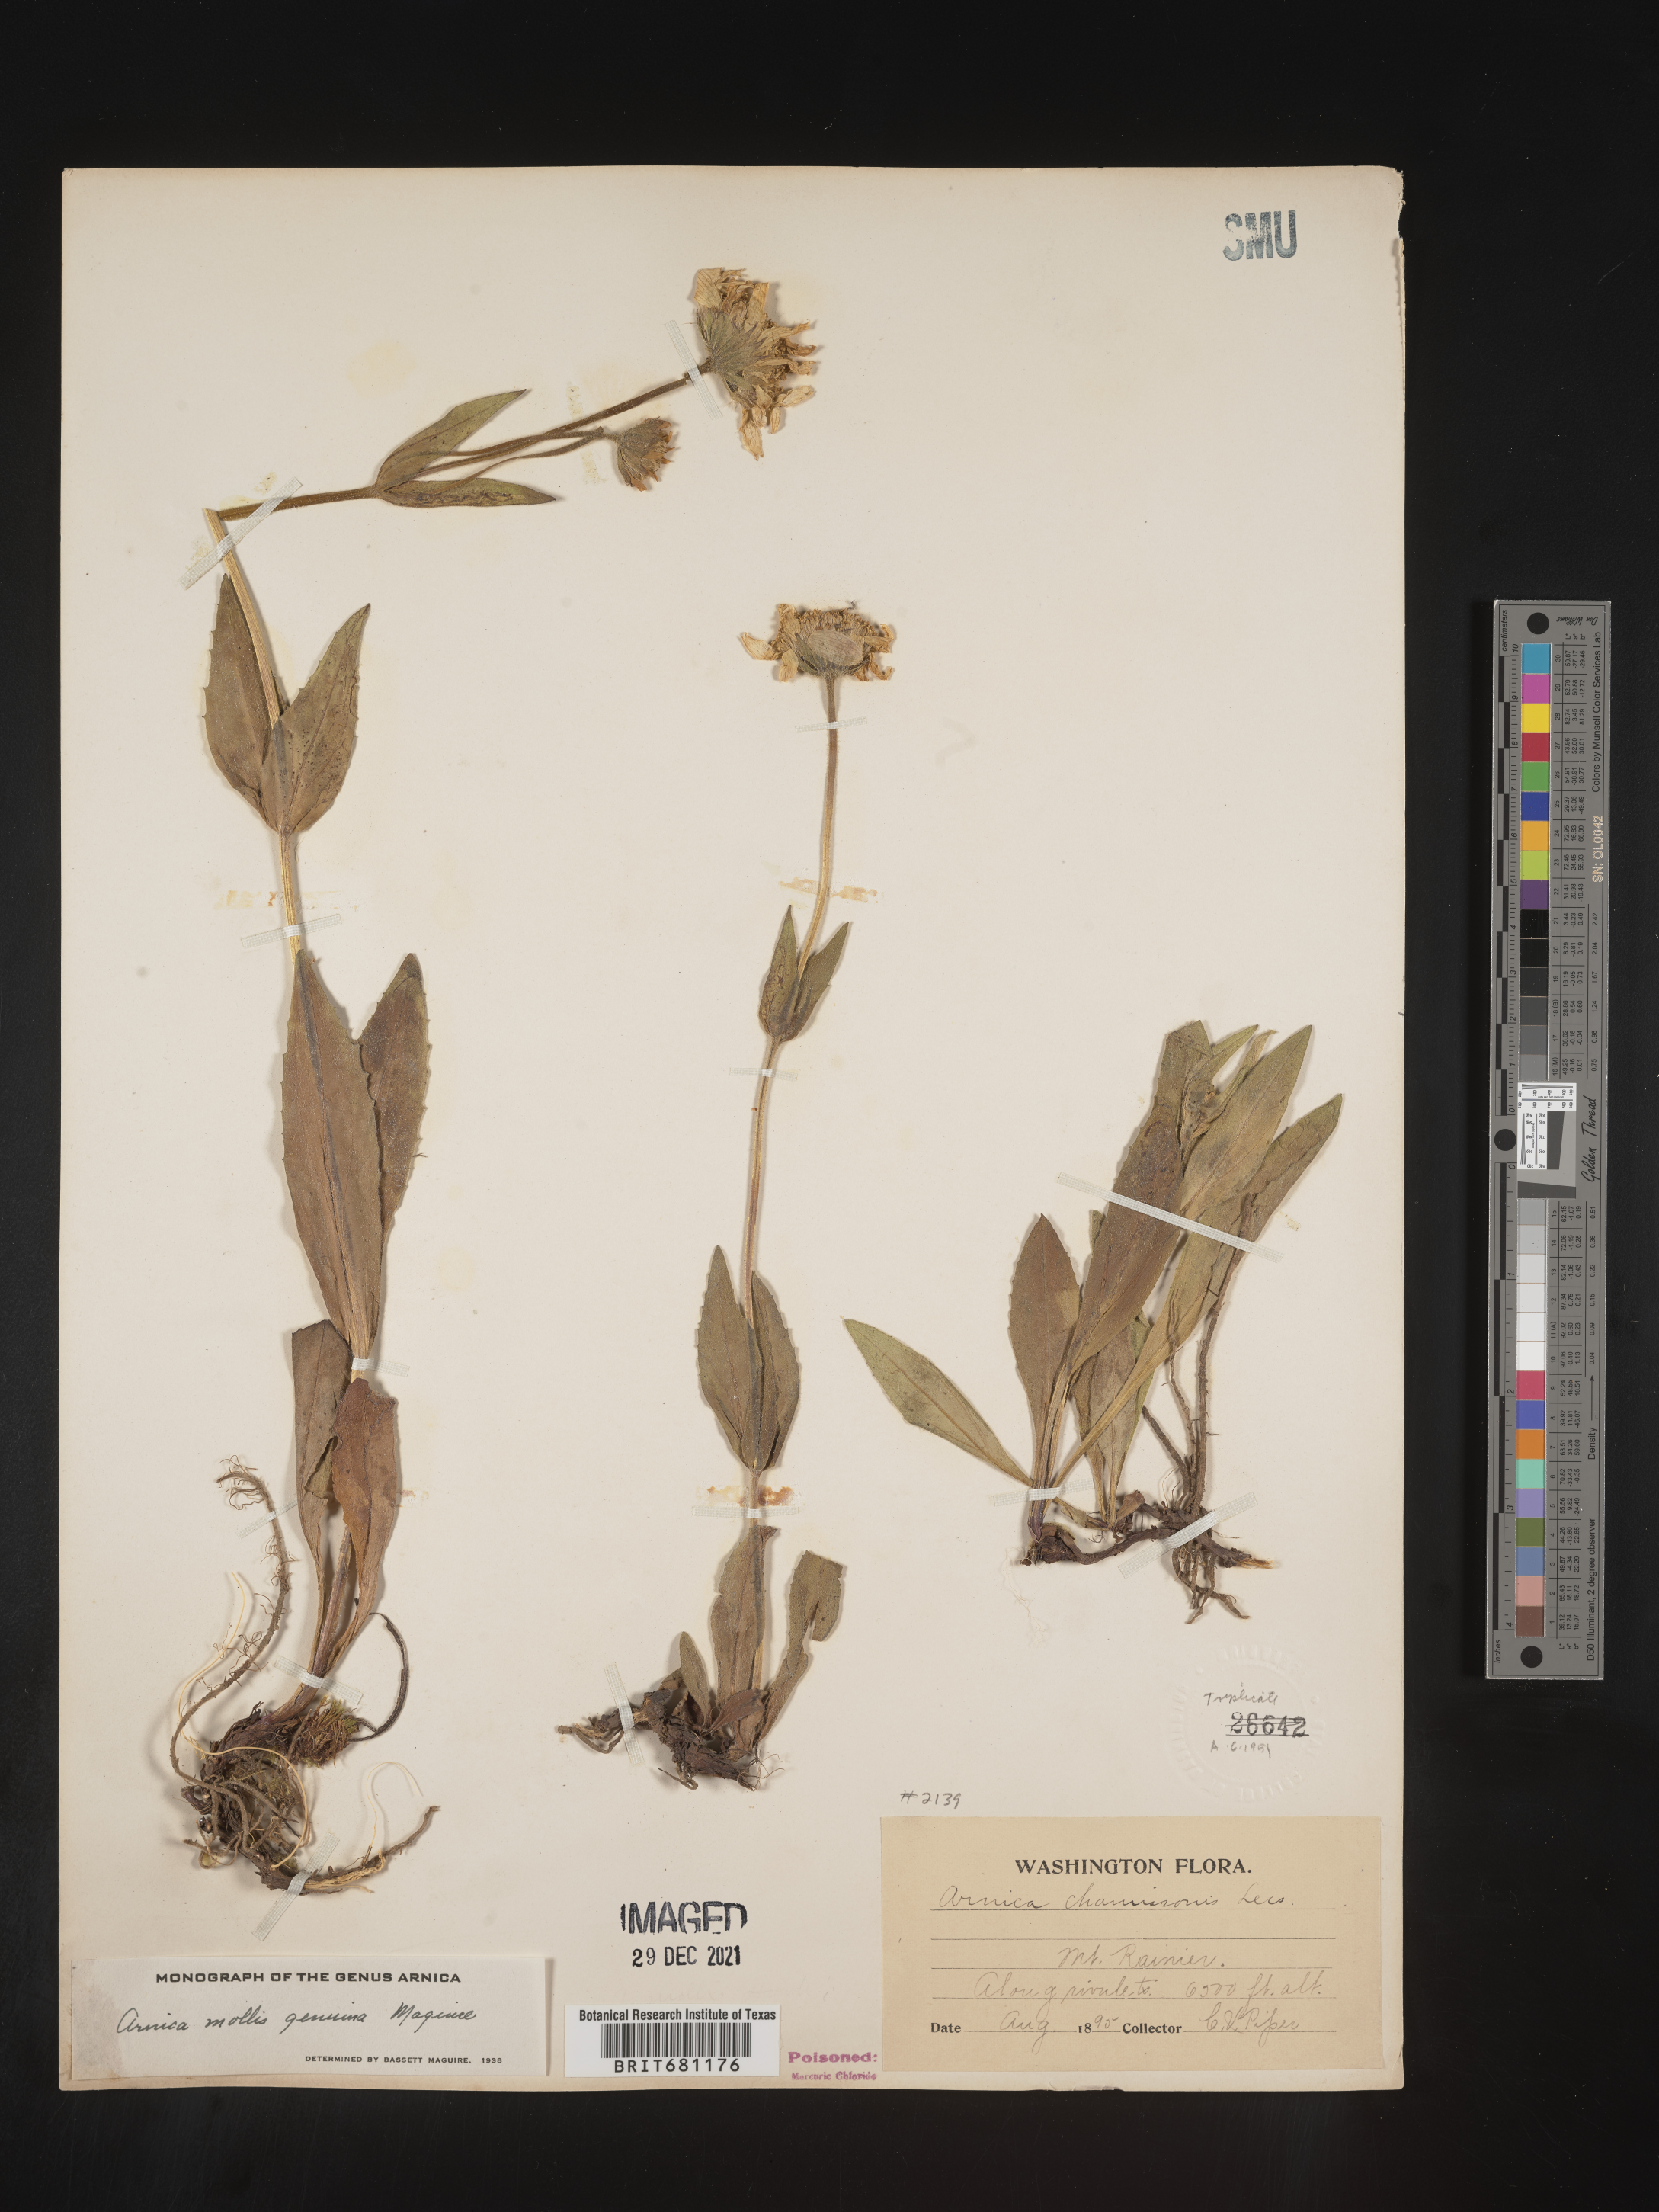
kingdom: Plantae
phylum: Tracheophyta
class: Magnoliopsida
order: Asterales
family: Asteraceae
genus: Arnica
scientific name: Arnica chamissonis
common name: Leafy arnica
